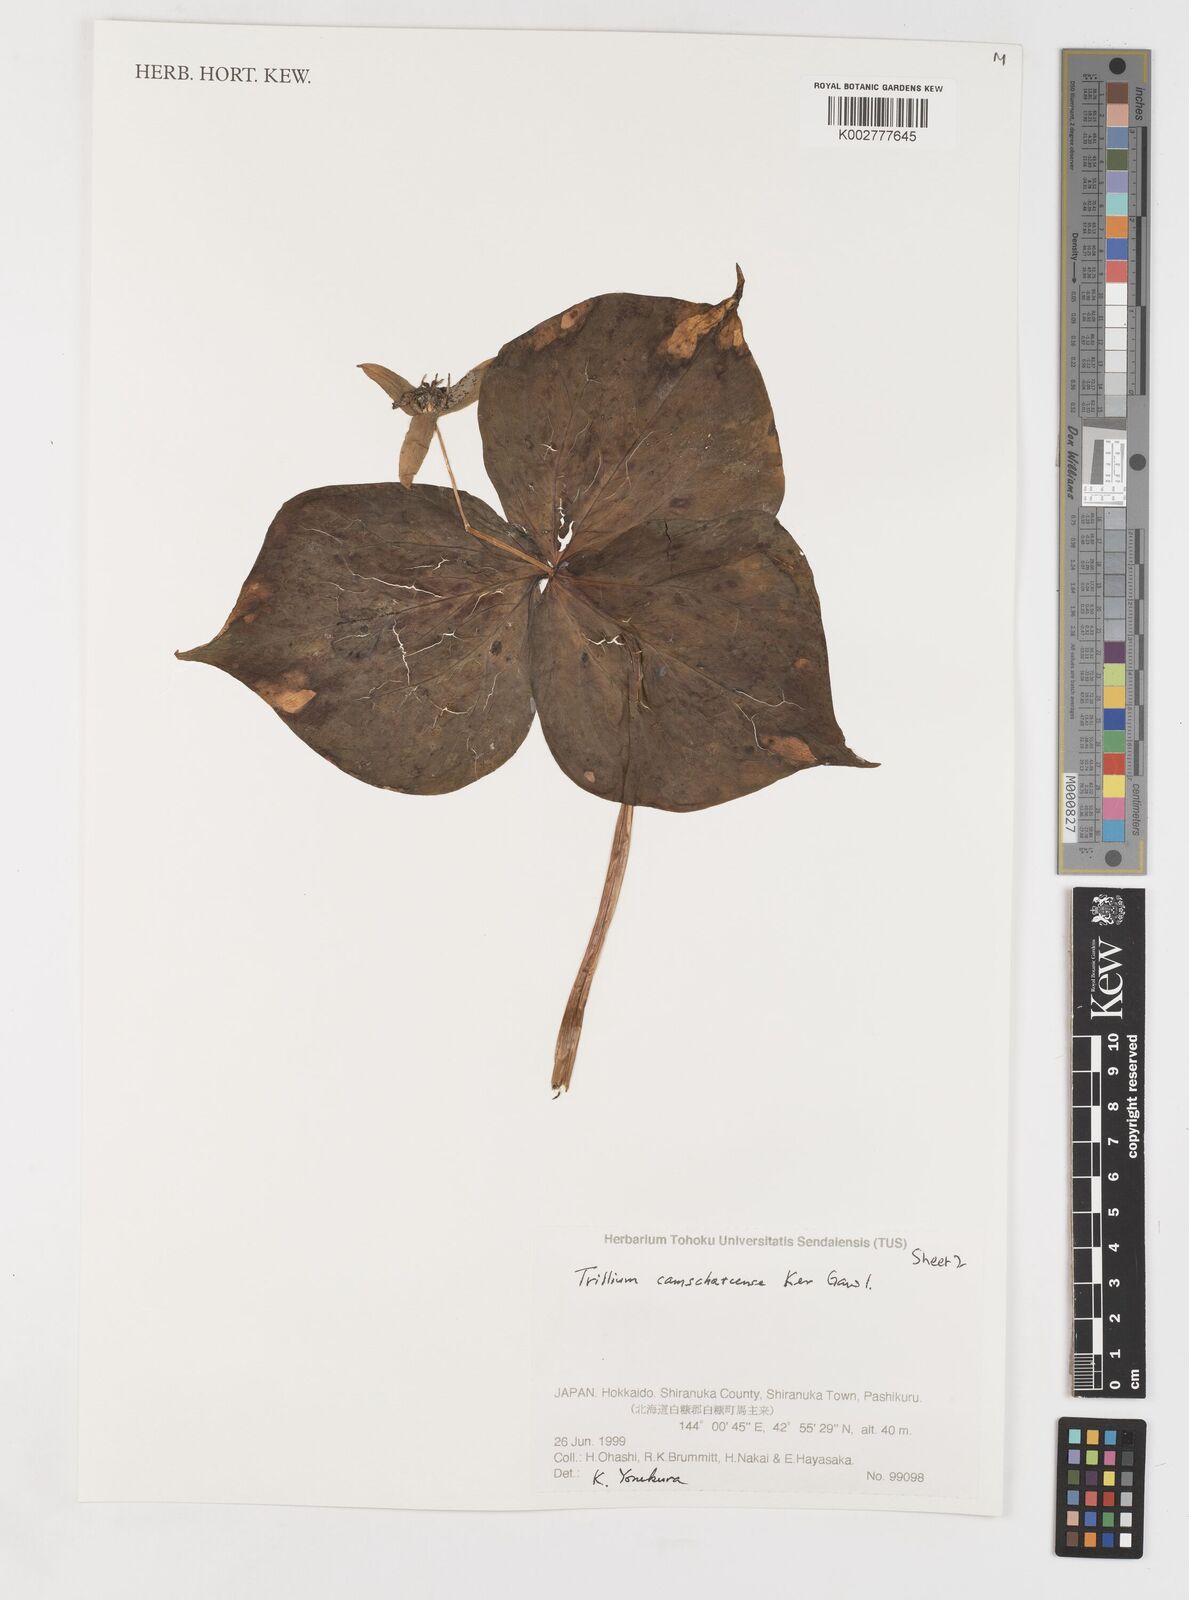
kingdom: Plantae
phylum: Tracheophyta
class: Liliopsida
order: Liliales
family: Melanthiaceae
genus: Trillium
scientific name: Trillium camschatcense
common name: Kamchatka trillium
